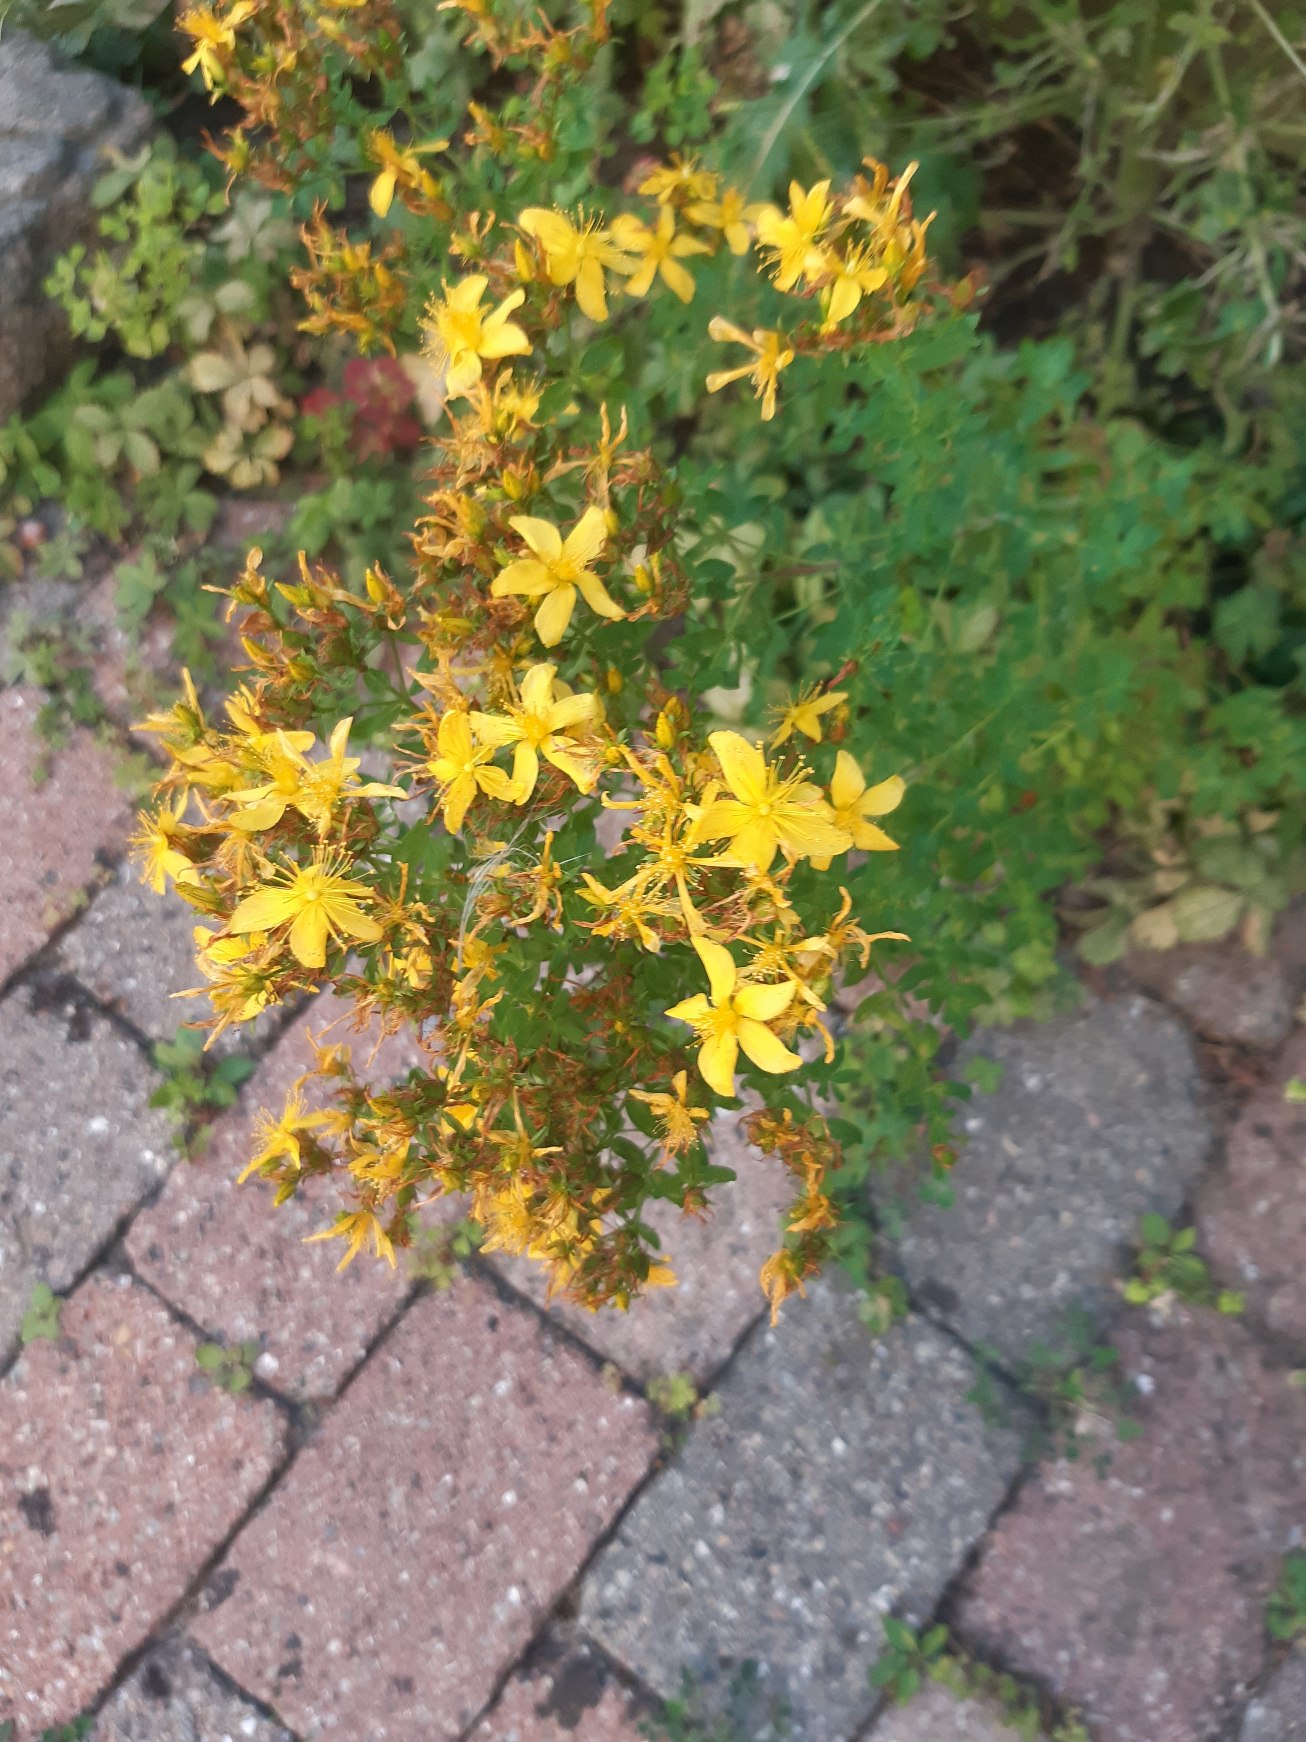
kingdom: Plantae
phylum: Tracheophyta
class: Magnoliopsida
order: Malpighiales
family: Hypericaceae
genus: Hypericum
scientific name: Hypericum perforatum
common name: Prikbladet perikon
